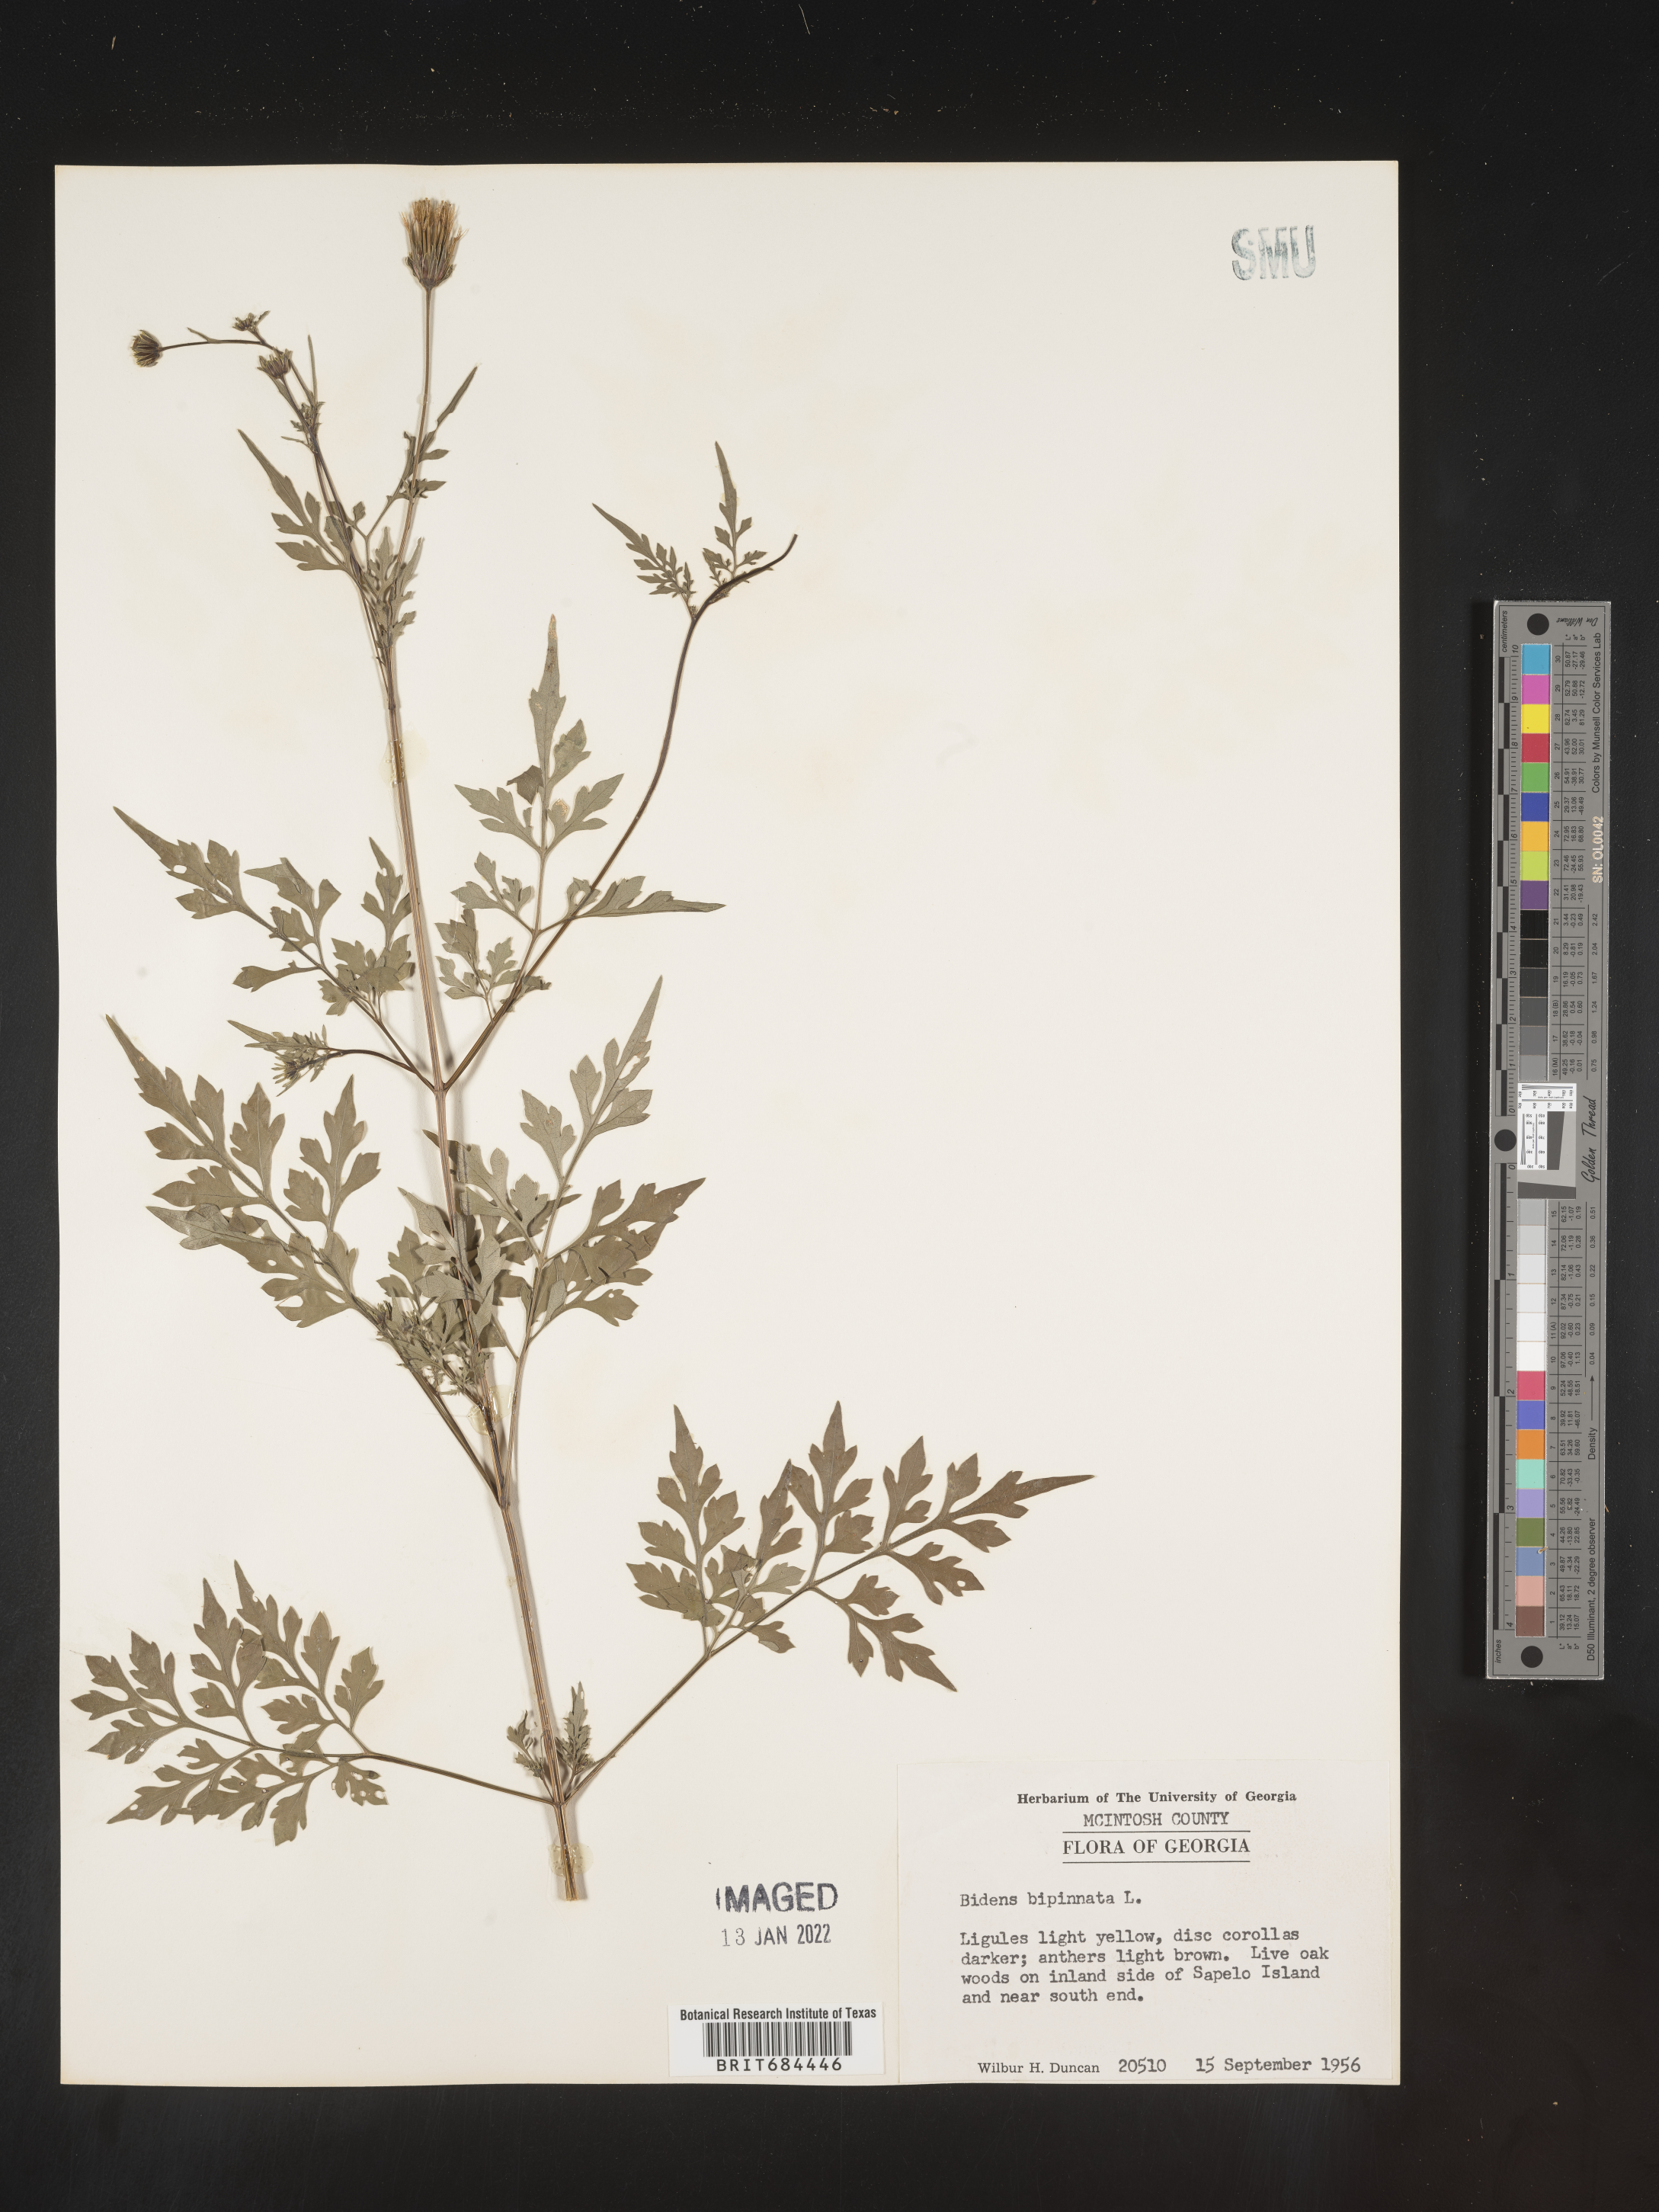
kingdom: Plantae
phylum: Tracheophyta
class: Magnoliopsida
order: Asterales
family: Asteraceae
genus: Bidens
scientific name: Bidens bipinnata
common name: Spanish-needles
